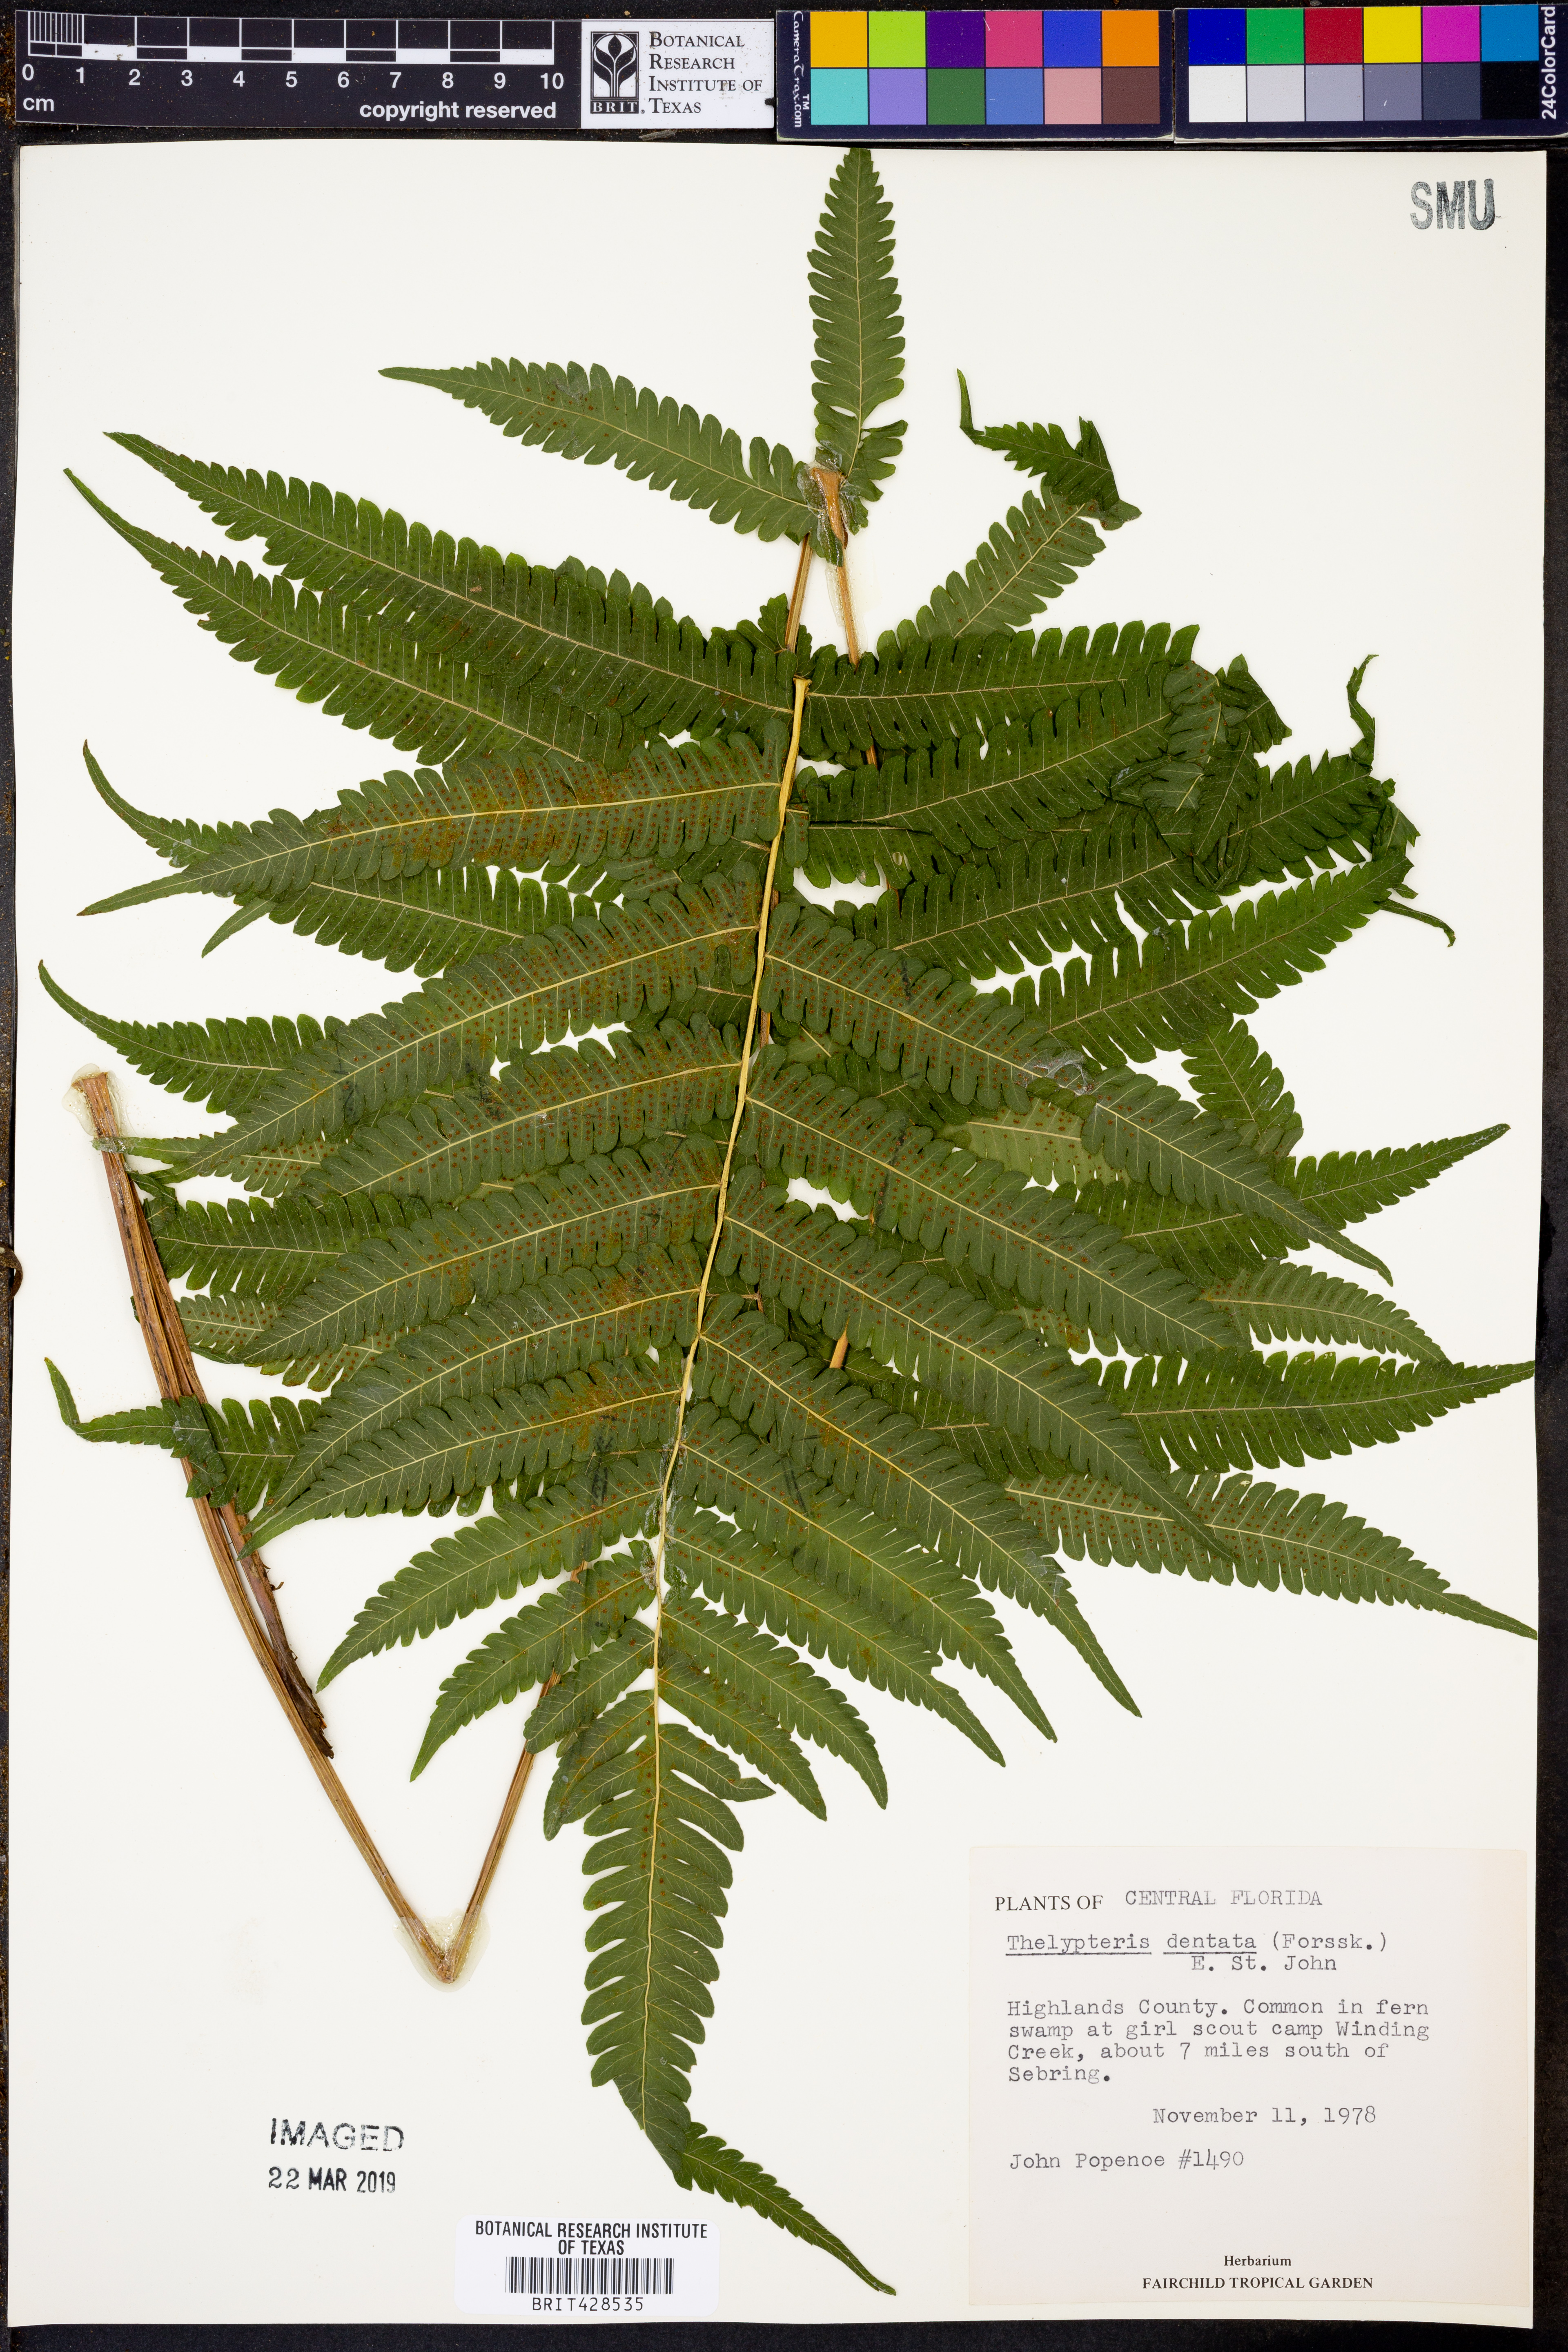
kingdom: Plantae
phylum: Tracheophyta
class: Polypodiopsida
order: Polypodiales
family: Thelypteridaceae
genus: Christella
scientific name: Christella dentata
